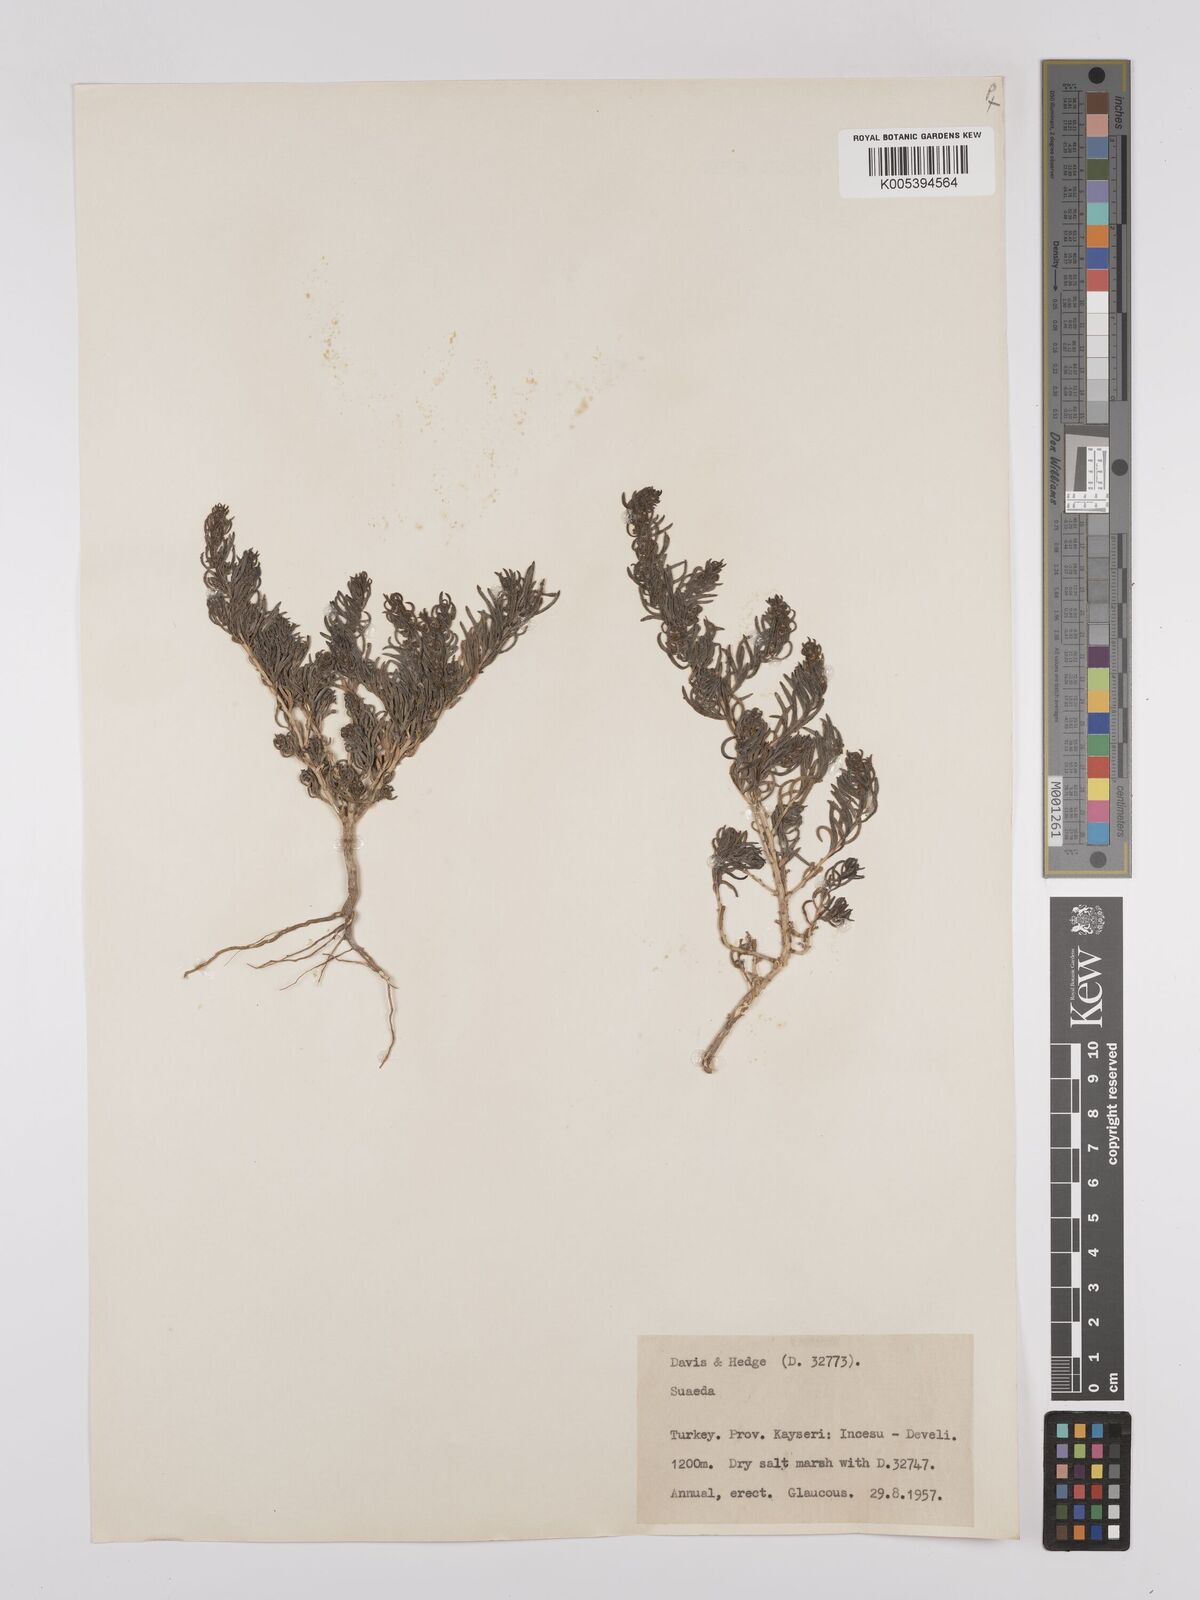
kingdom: Plantae
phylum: Tracheophyta
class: Magnoliopsida
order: Caryophyllales
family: Amaranthaceae
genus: Suaeda
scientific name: Suaeda
